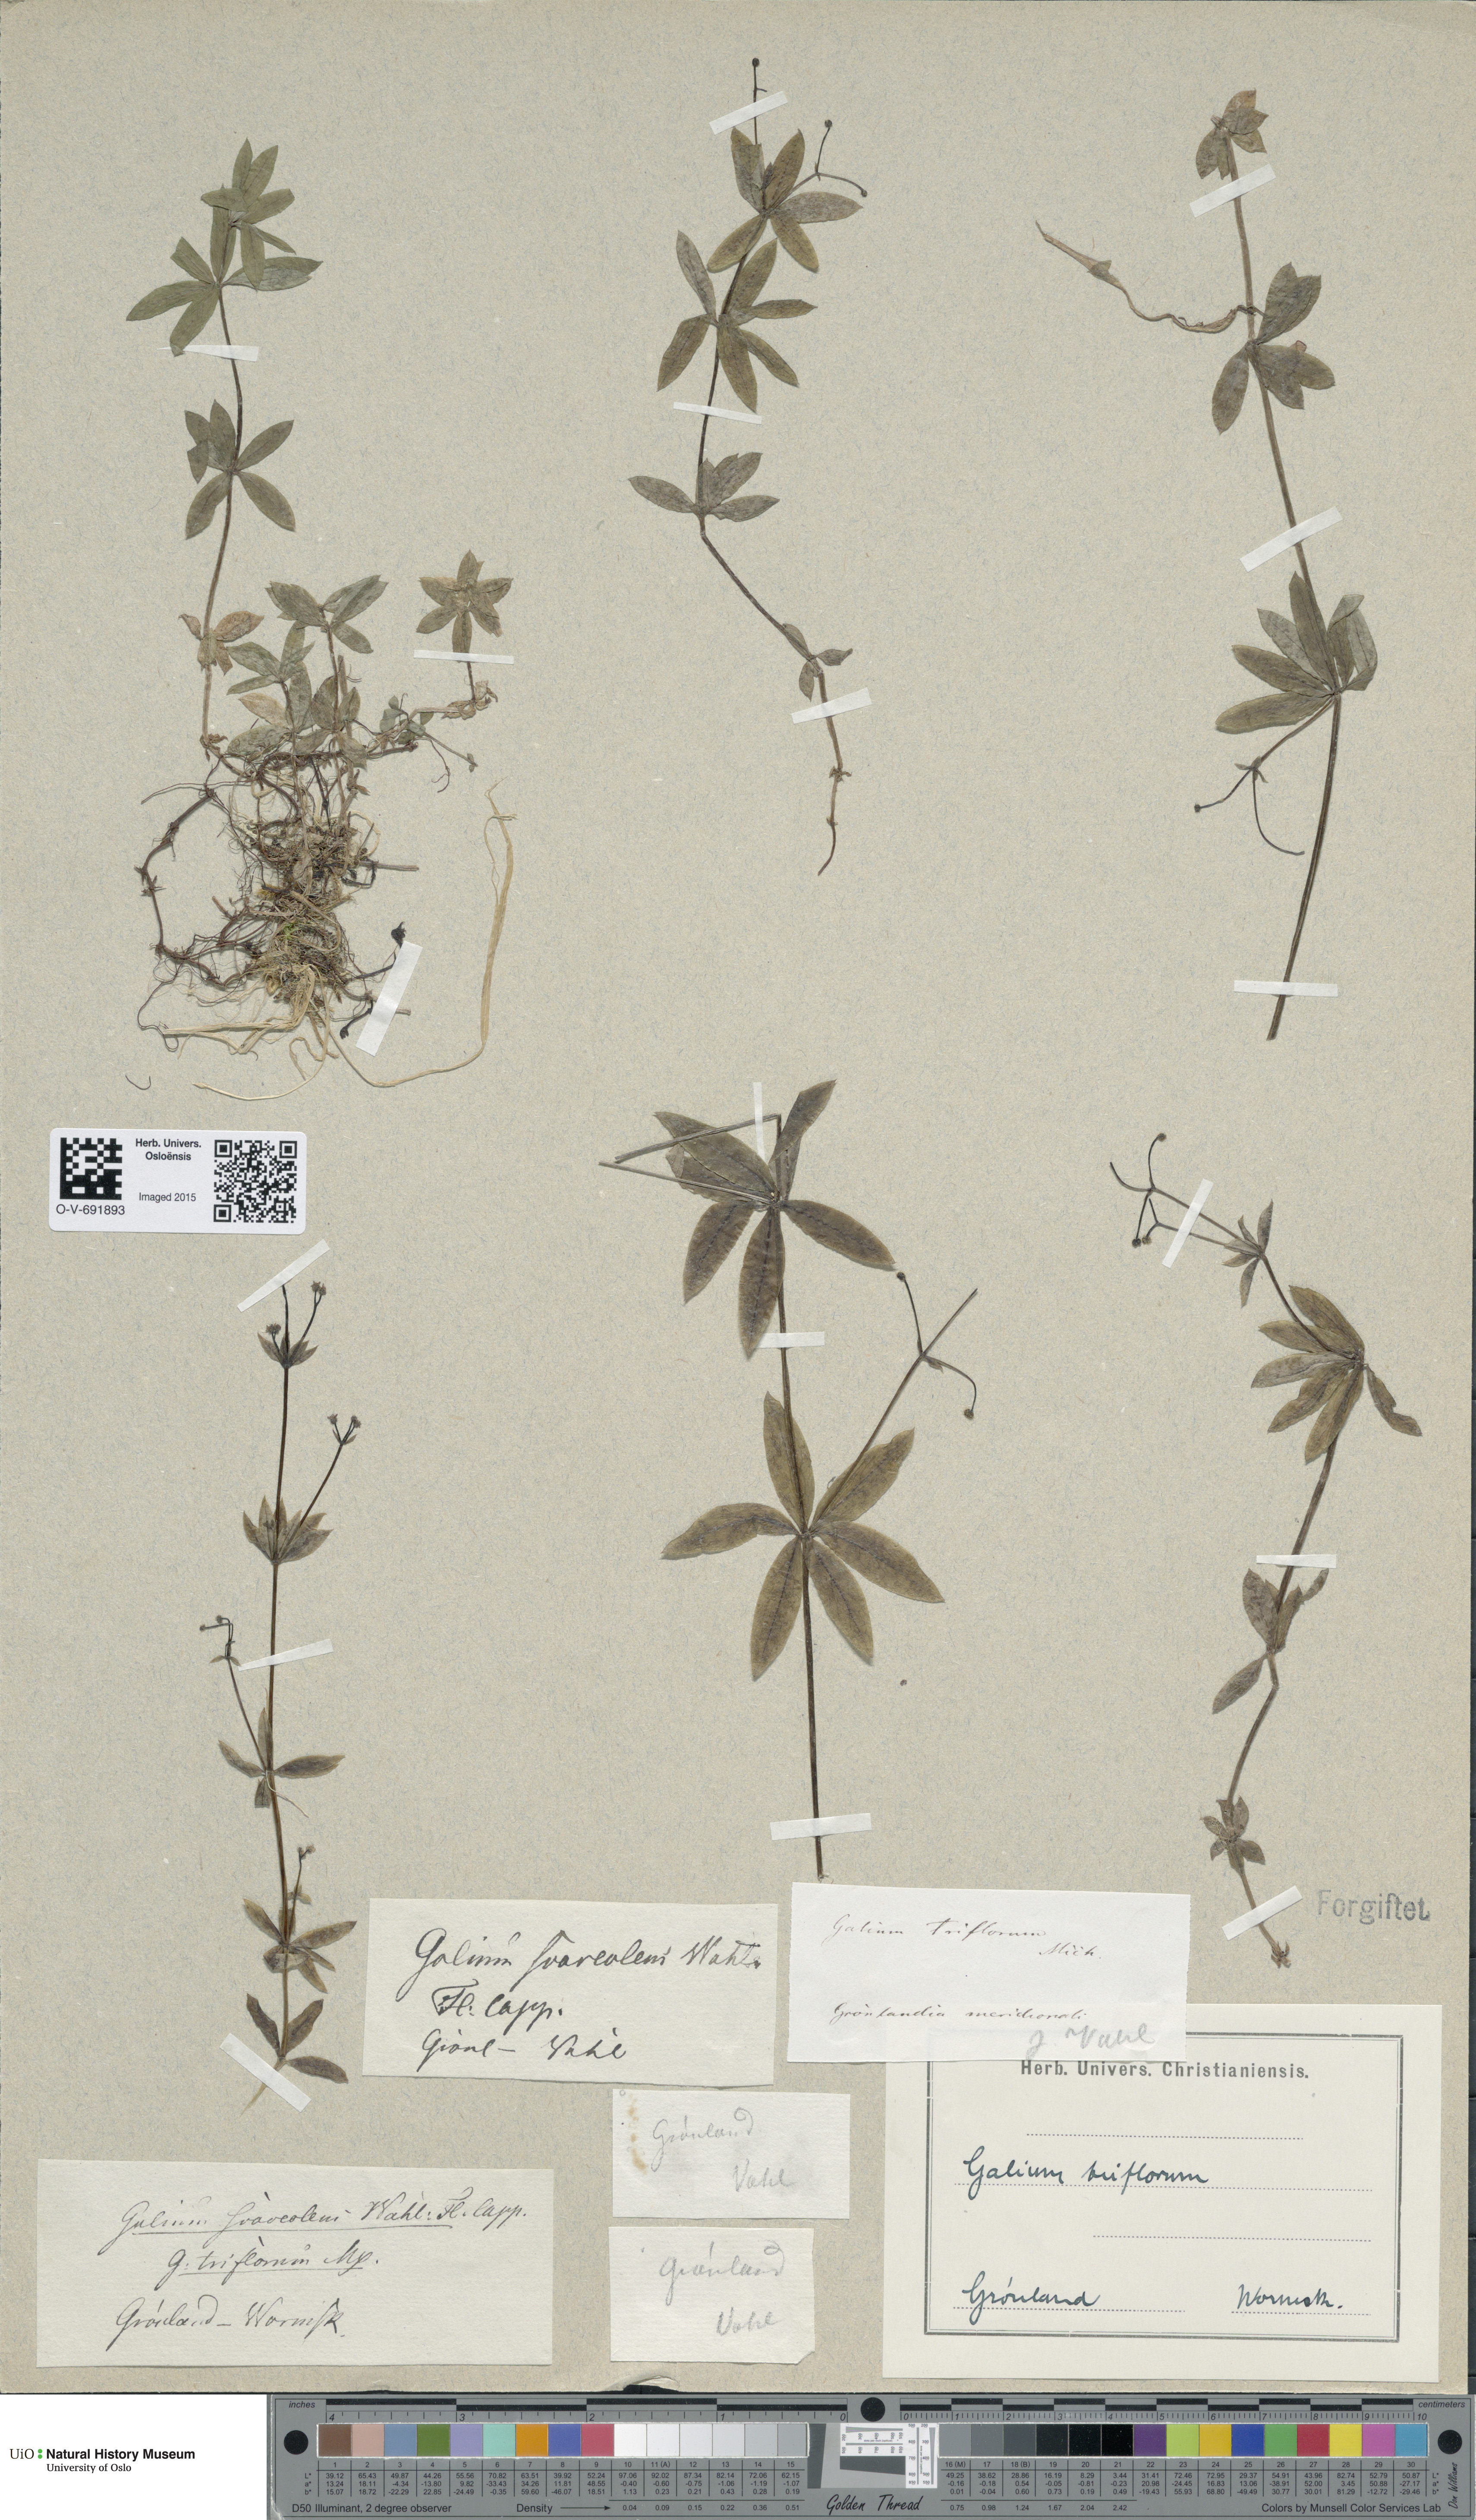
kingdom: Plantae
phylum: Tracheophyta
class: Magnoliopsida
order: Gentianales
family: Rubiaceae
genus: Galium
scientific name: Galium triflorum
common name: Fragrant bedstraw
